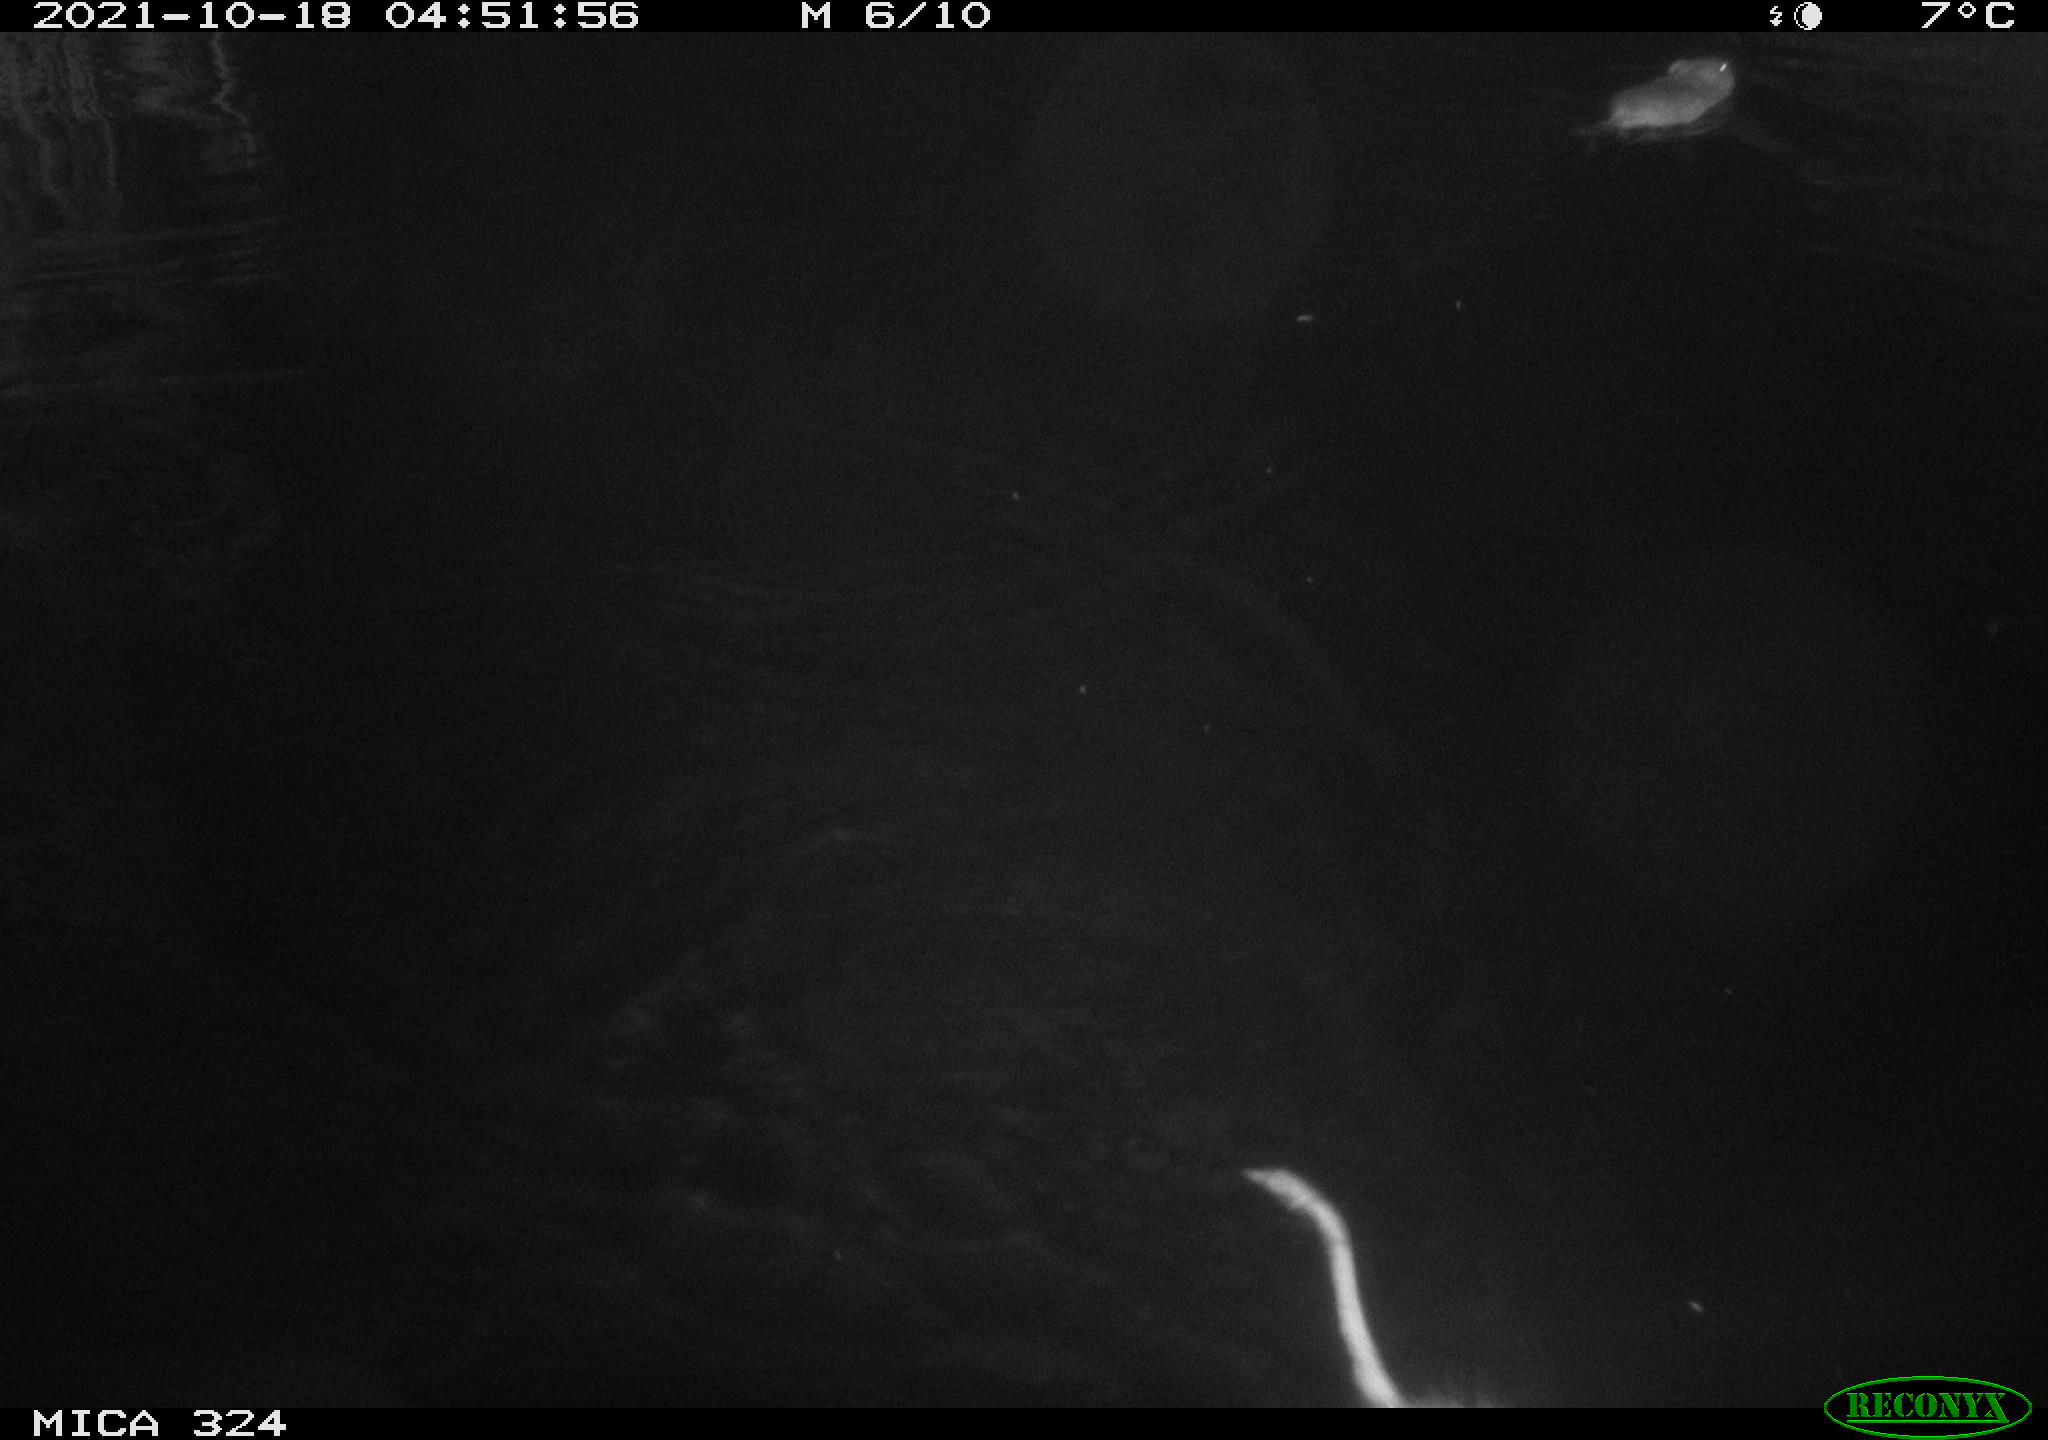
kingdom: Animalia
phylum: Chordata
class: Mammalia
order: Rodentia
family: Cricetidae
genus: Ondatra
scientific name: Ondatra zibethicus
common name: Muskrat
